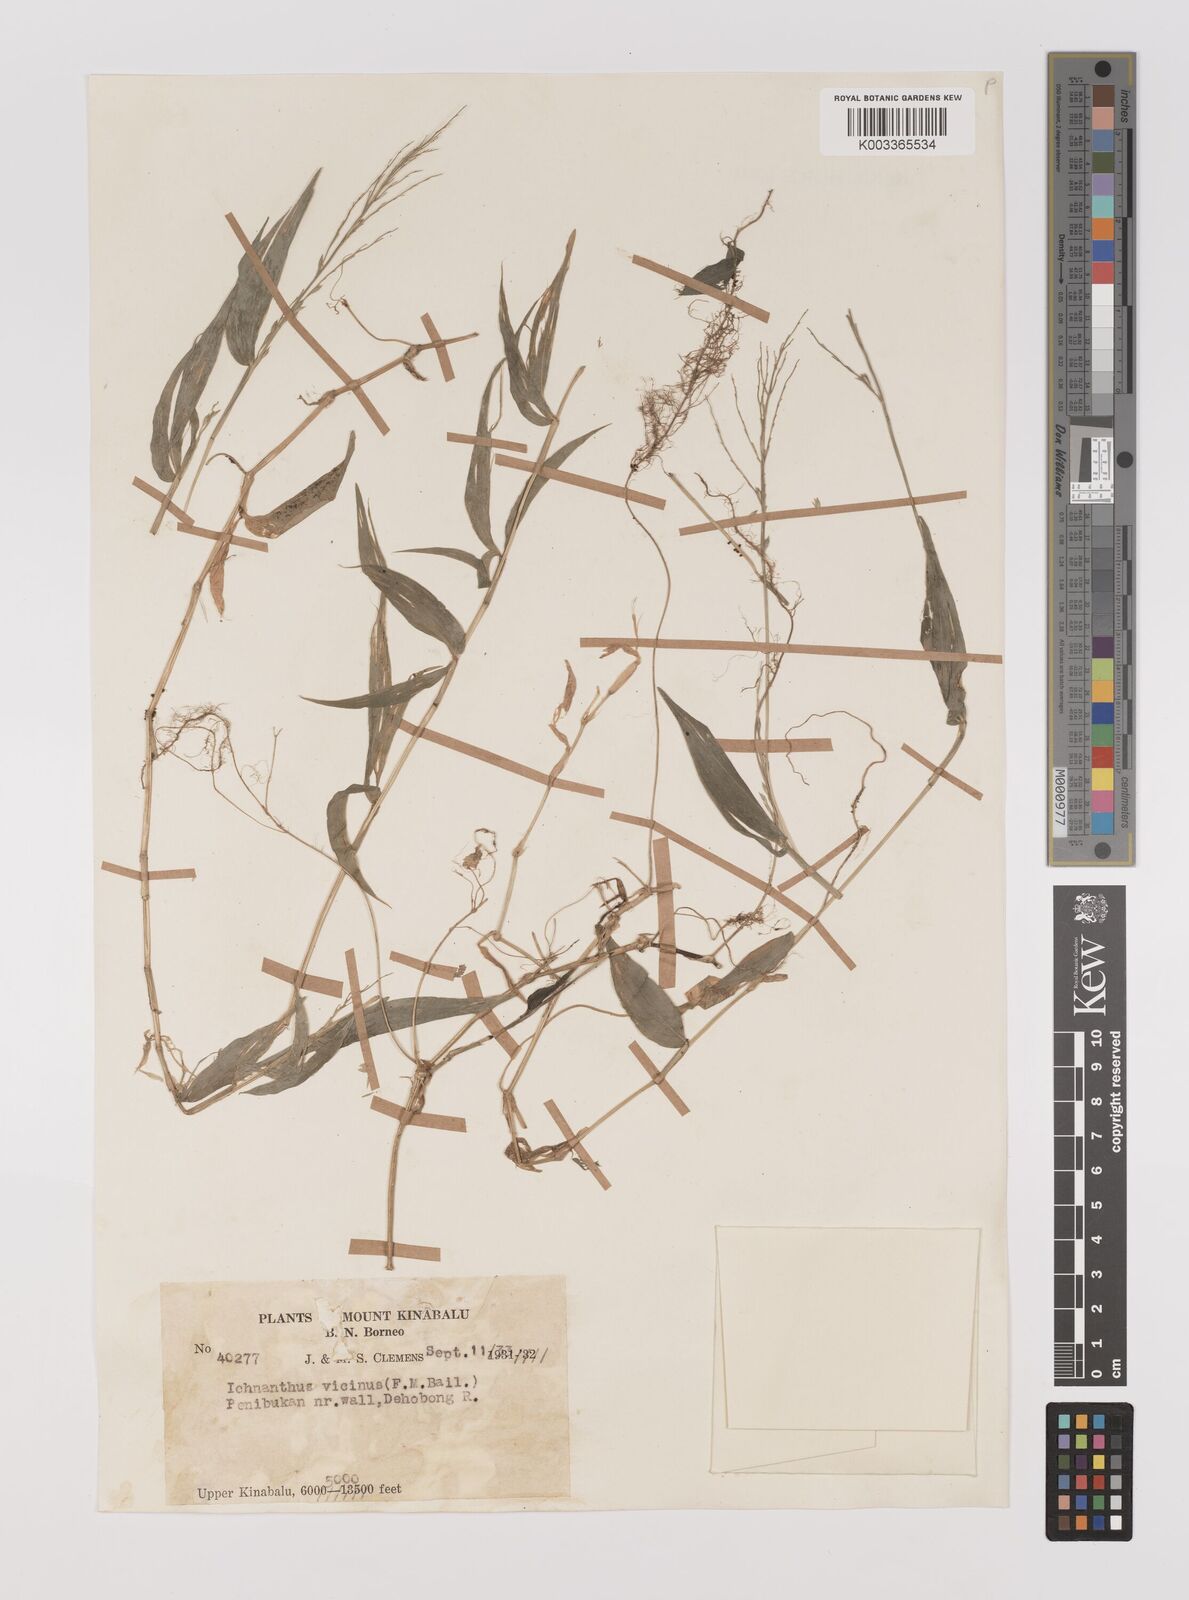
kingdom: Plantae
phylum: Tracheophyta
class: Liliopsida
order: Poales
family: Poaceae
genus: Ichnanthus
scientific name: Ichnanthus pallens
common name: Water grass
